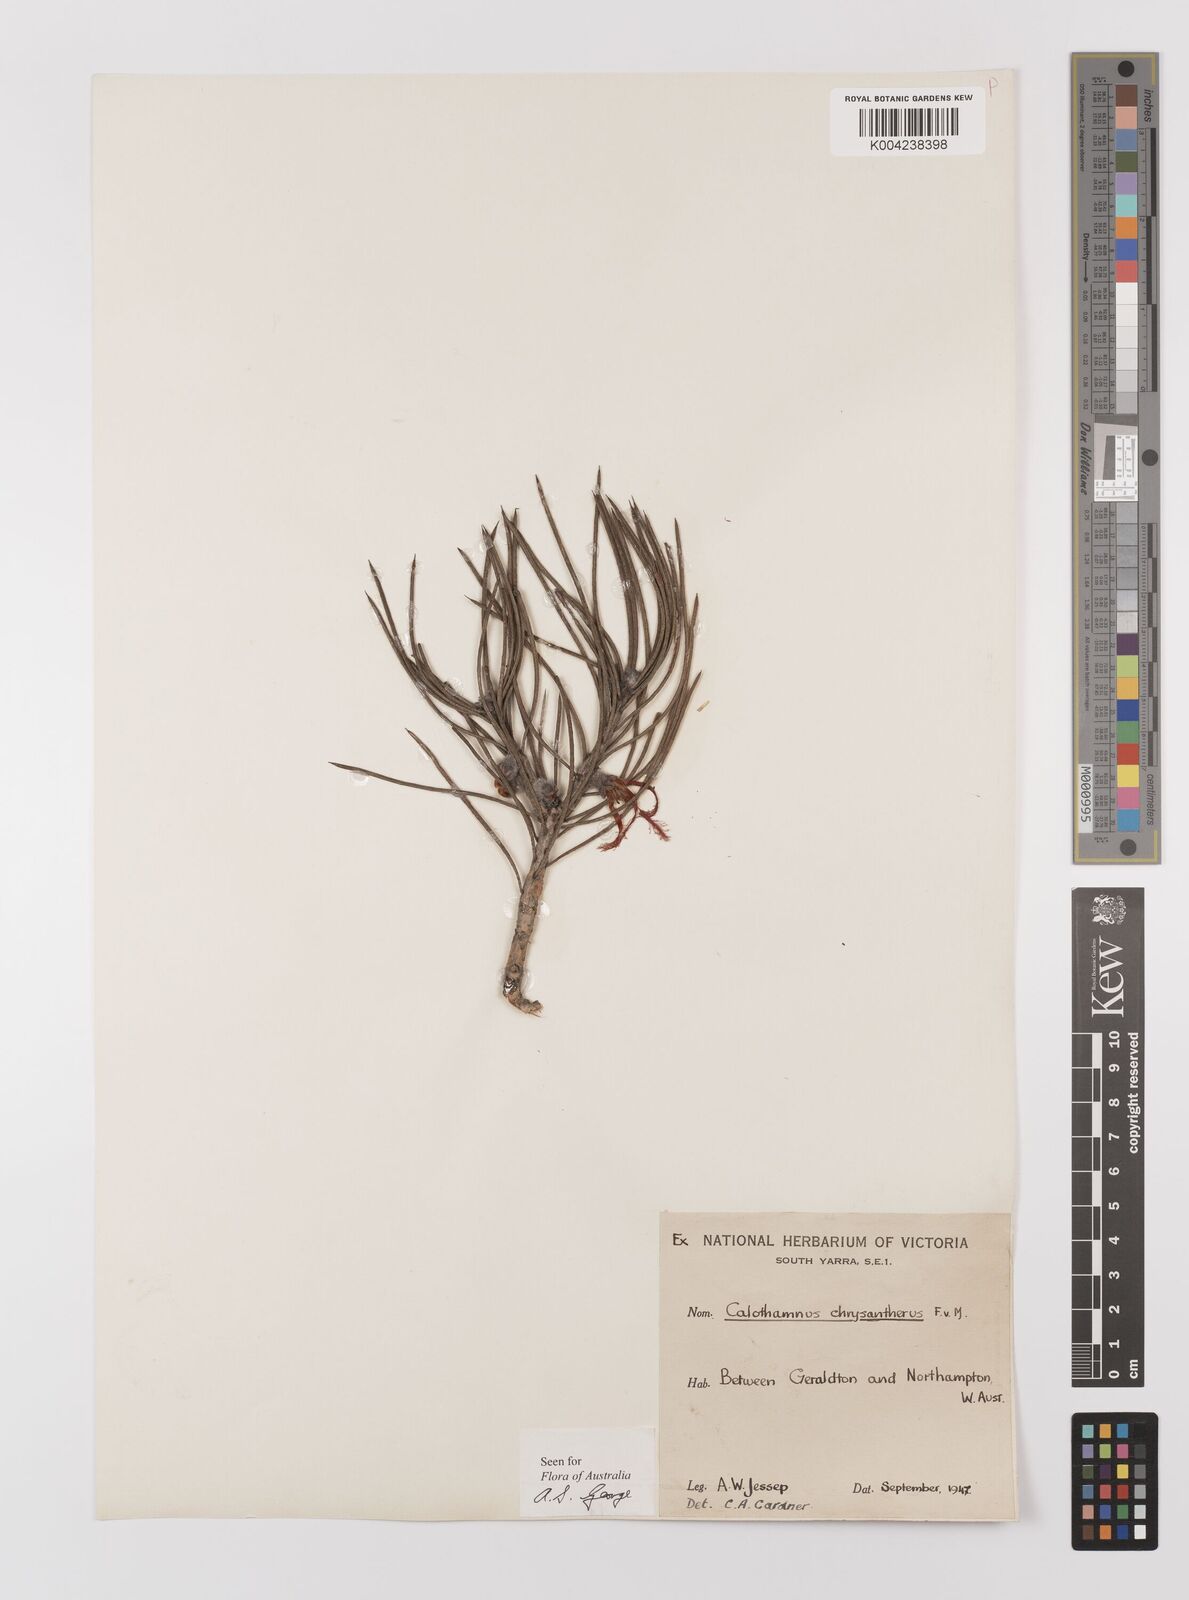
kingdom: Plantae
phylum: Tracheophyta
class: Magnoliopsida
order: Myrtales
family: Myrtaceae
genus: Melaleuca
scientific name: Melaleuca chrysantherea
